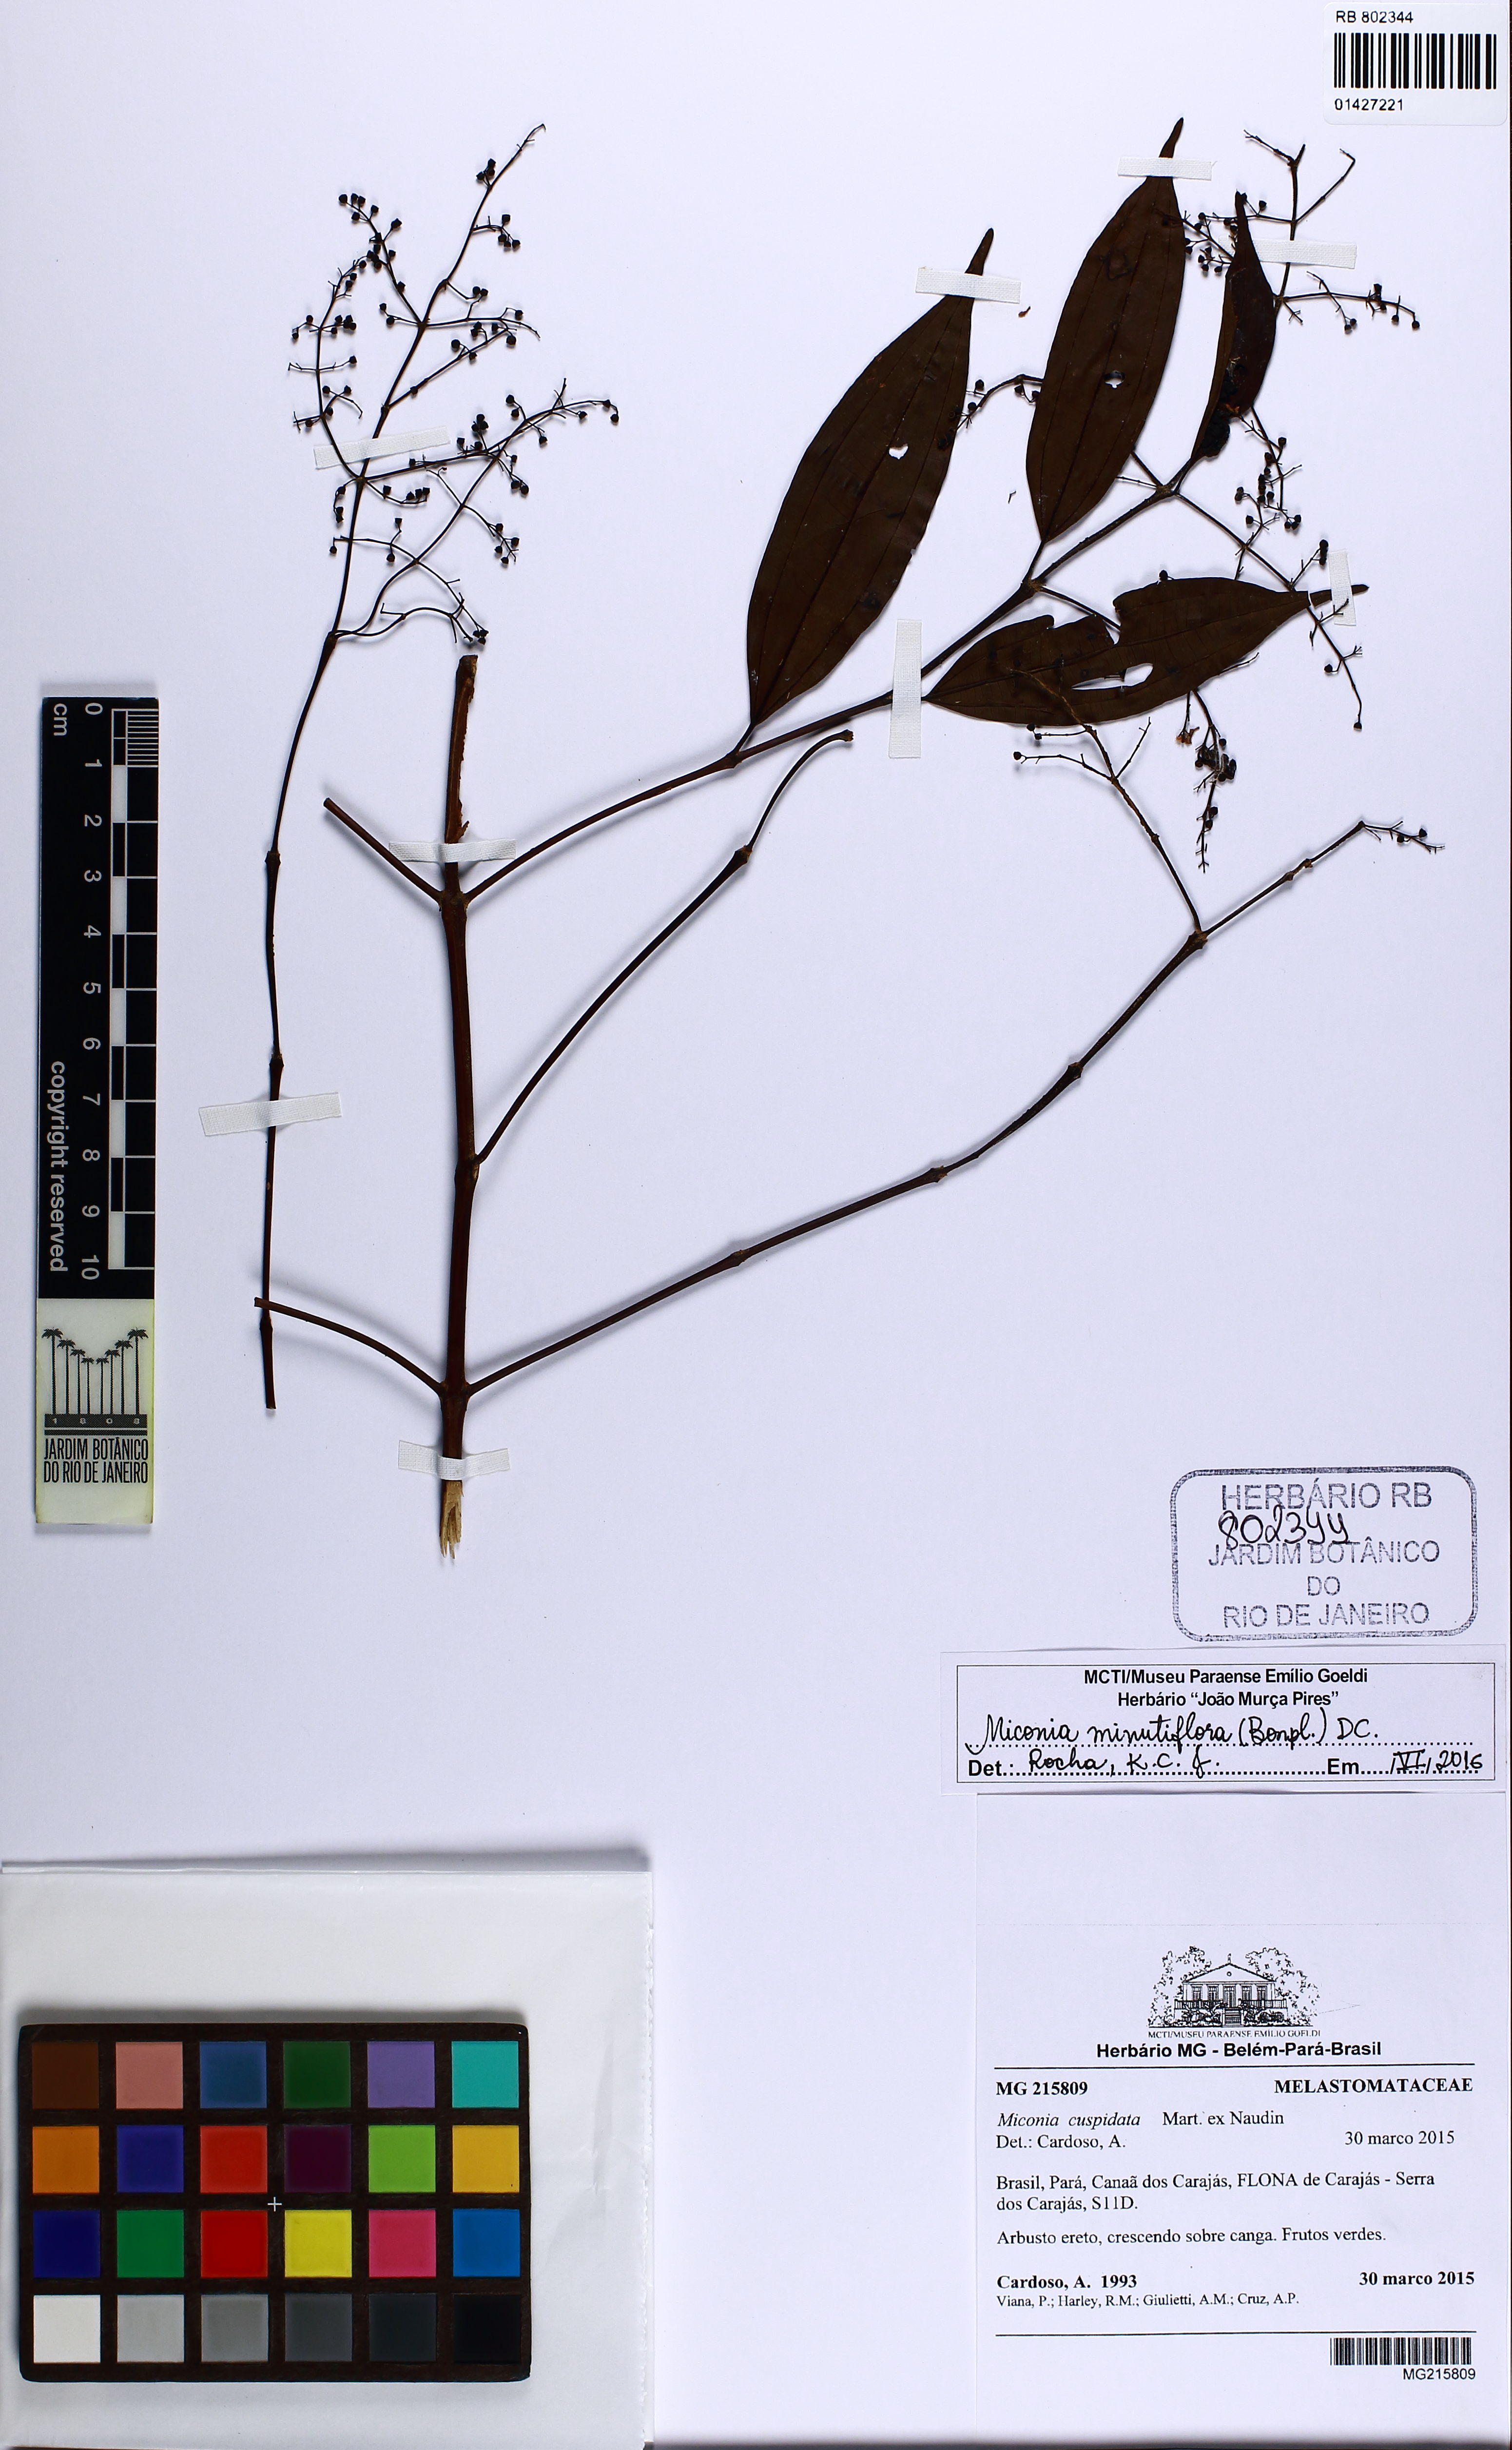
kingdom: Plantae
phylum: Tracheophyta
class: Magnoliopsida
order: Myrtales
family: Melastomataceae
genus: Miconia
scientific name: Miconia minutiflora
